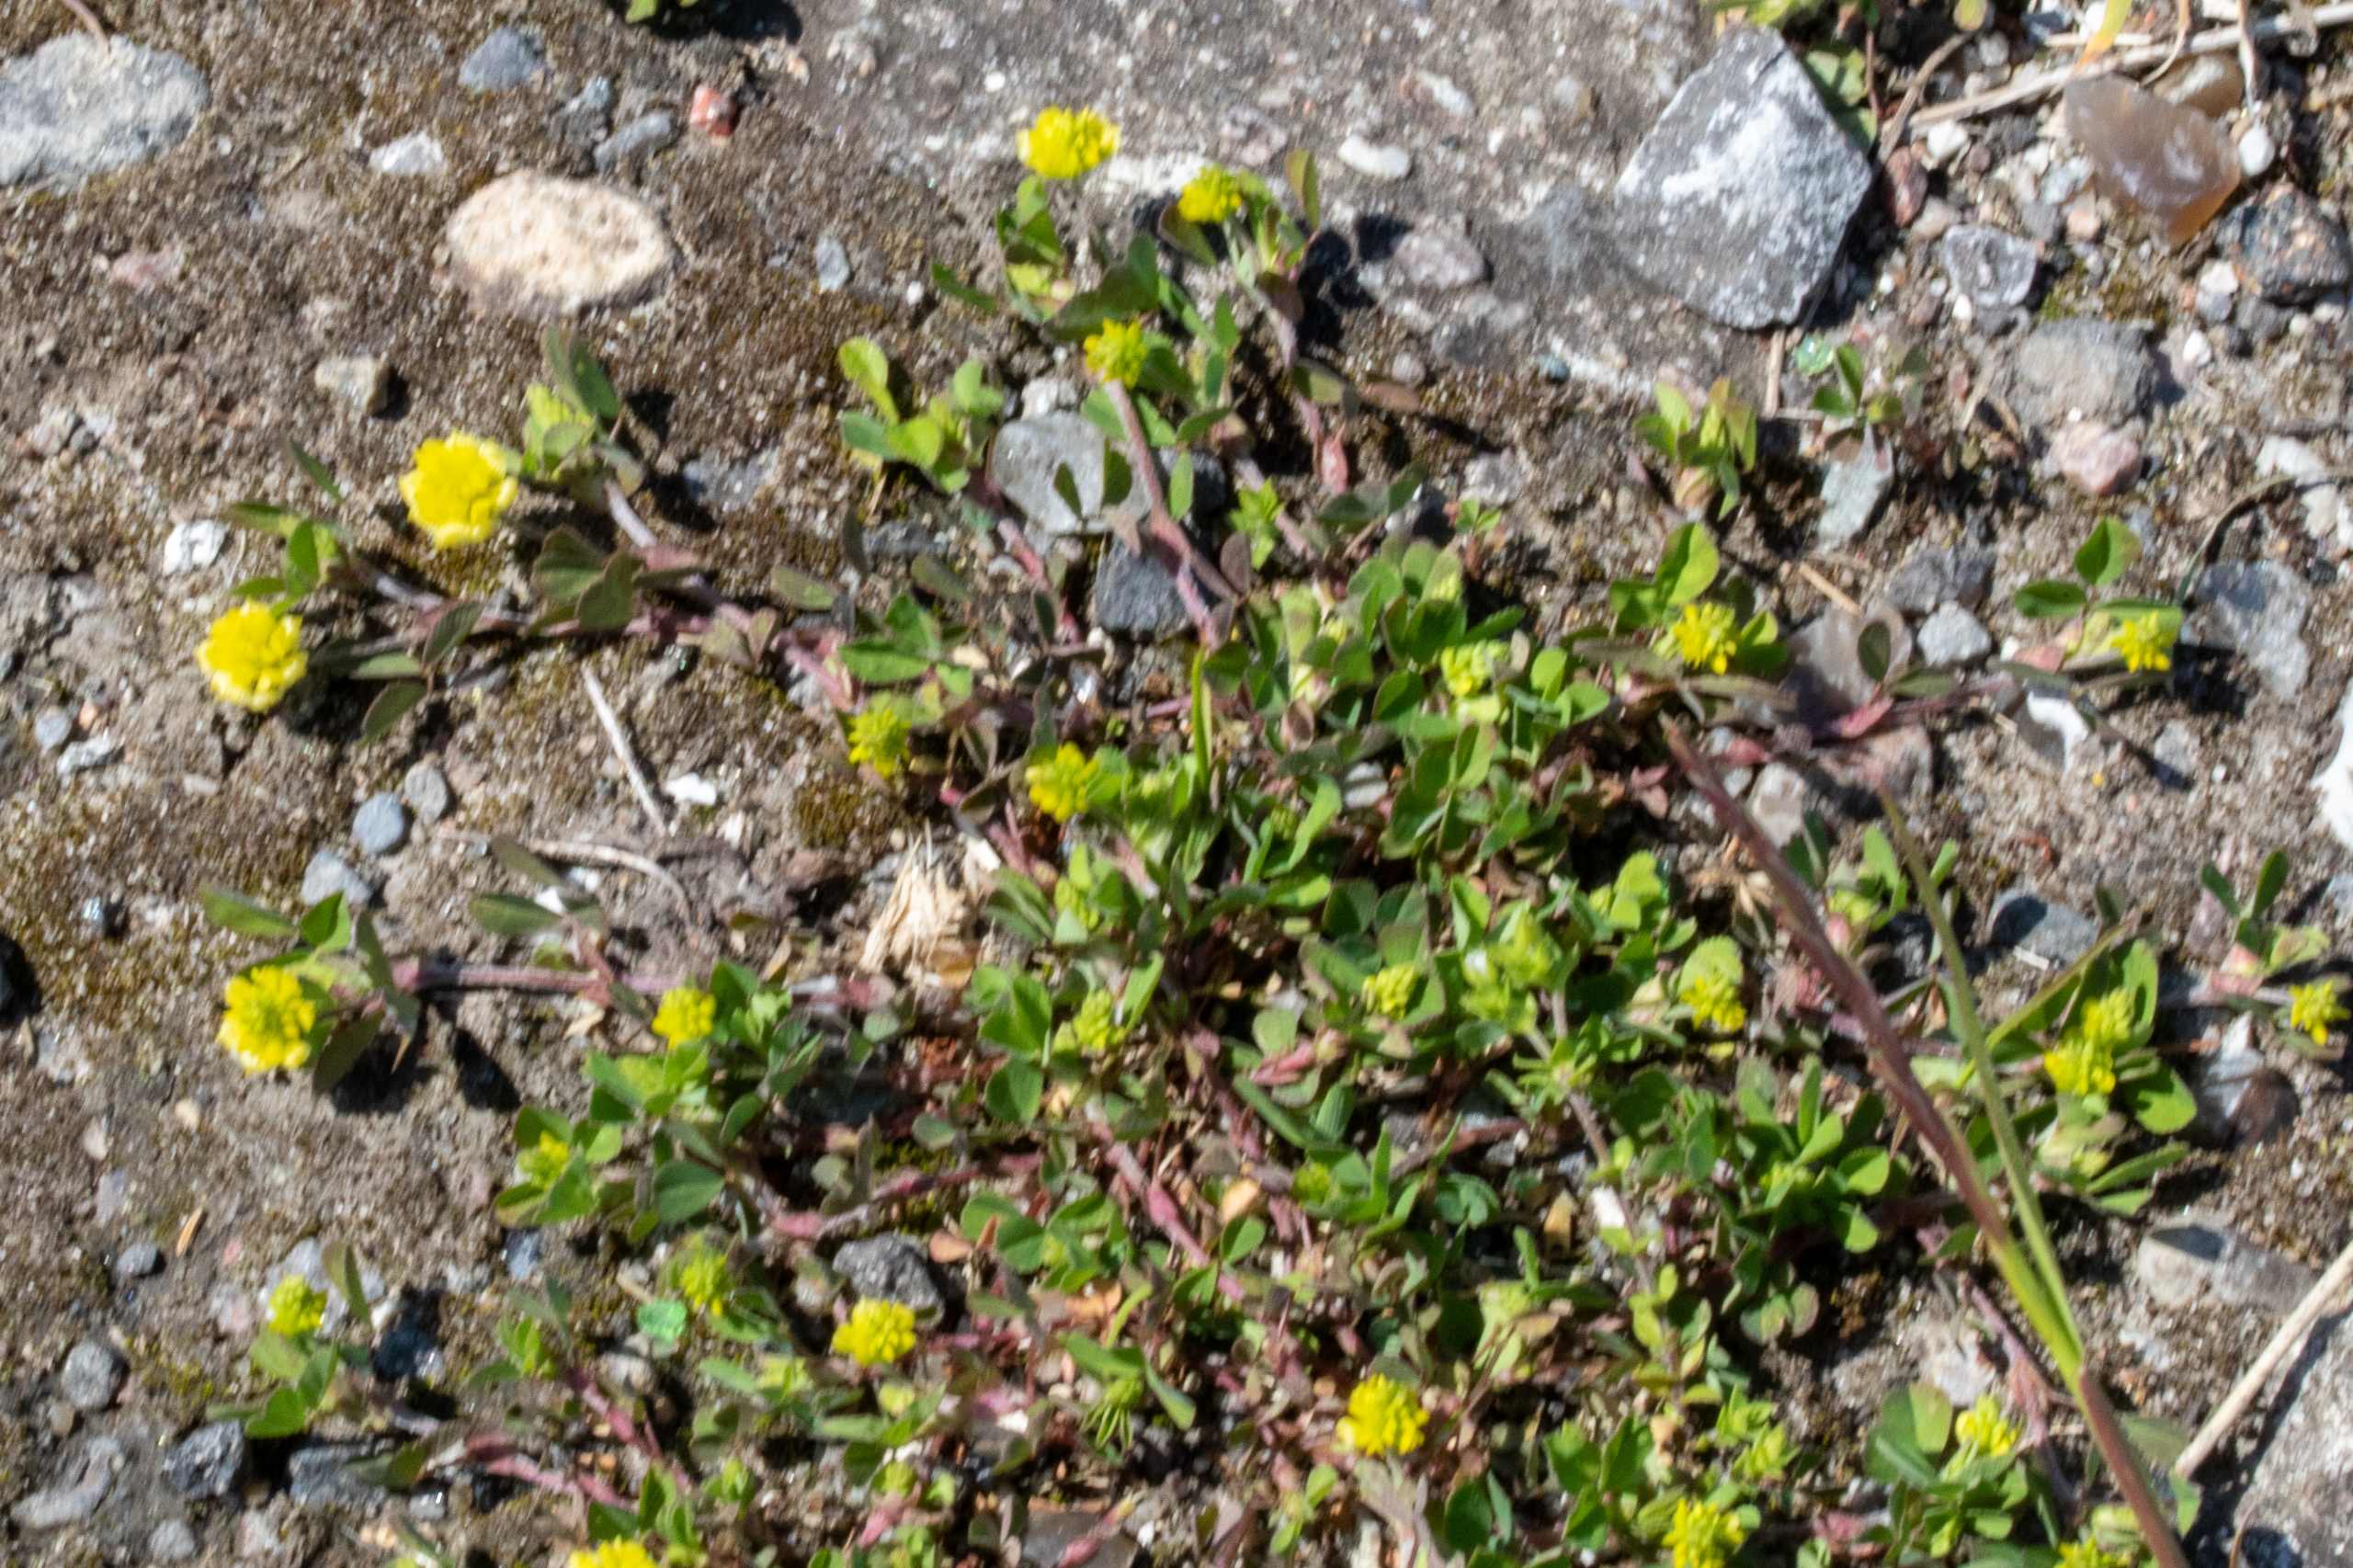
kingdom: Plantae
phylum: Tracheophyta
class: Magnoliopsida
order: Fabales
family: Fabaceae
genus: Trifolium
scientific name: Trifolium campestre
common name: Gul kløver
